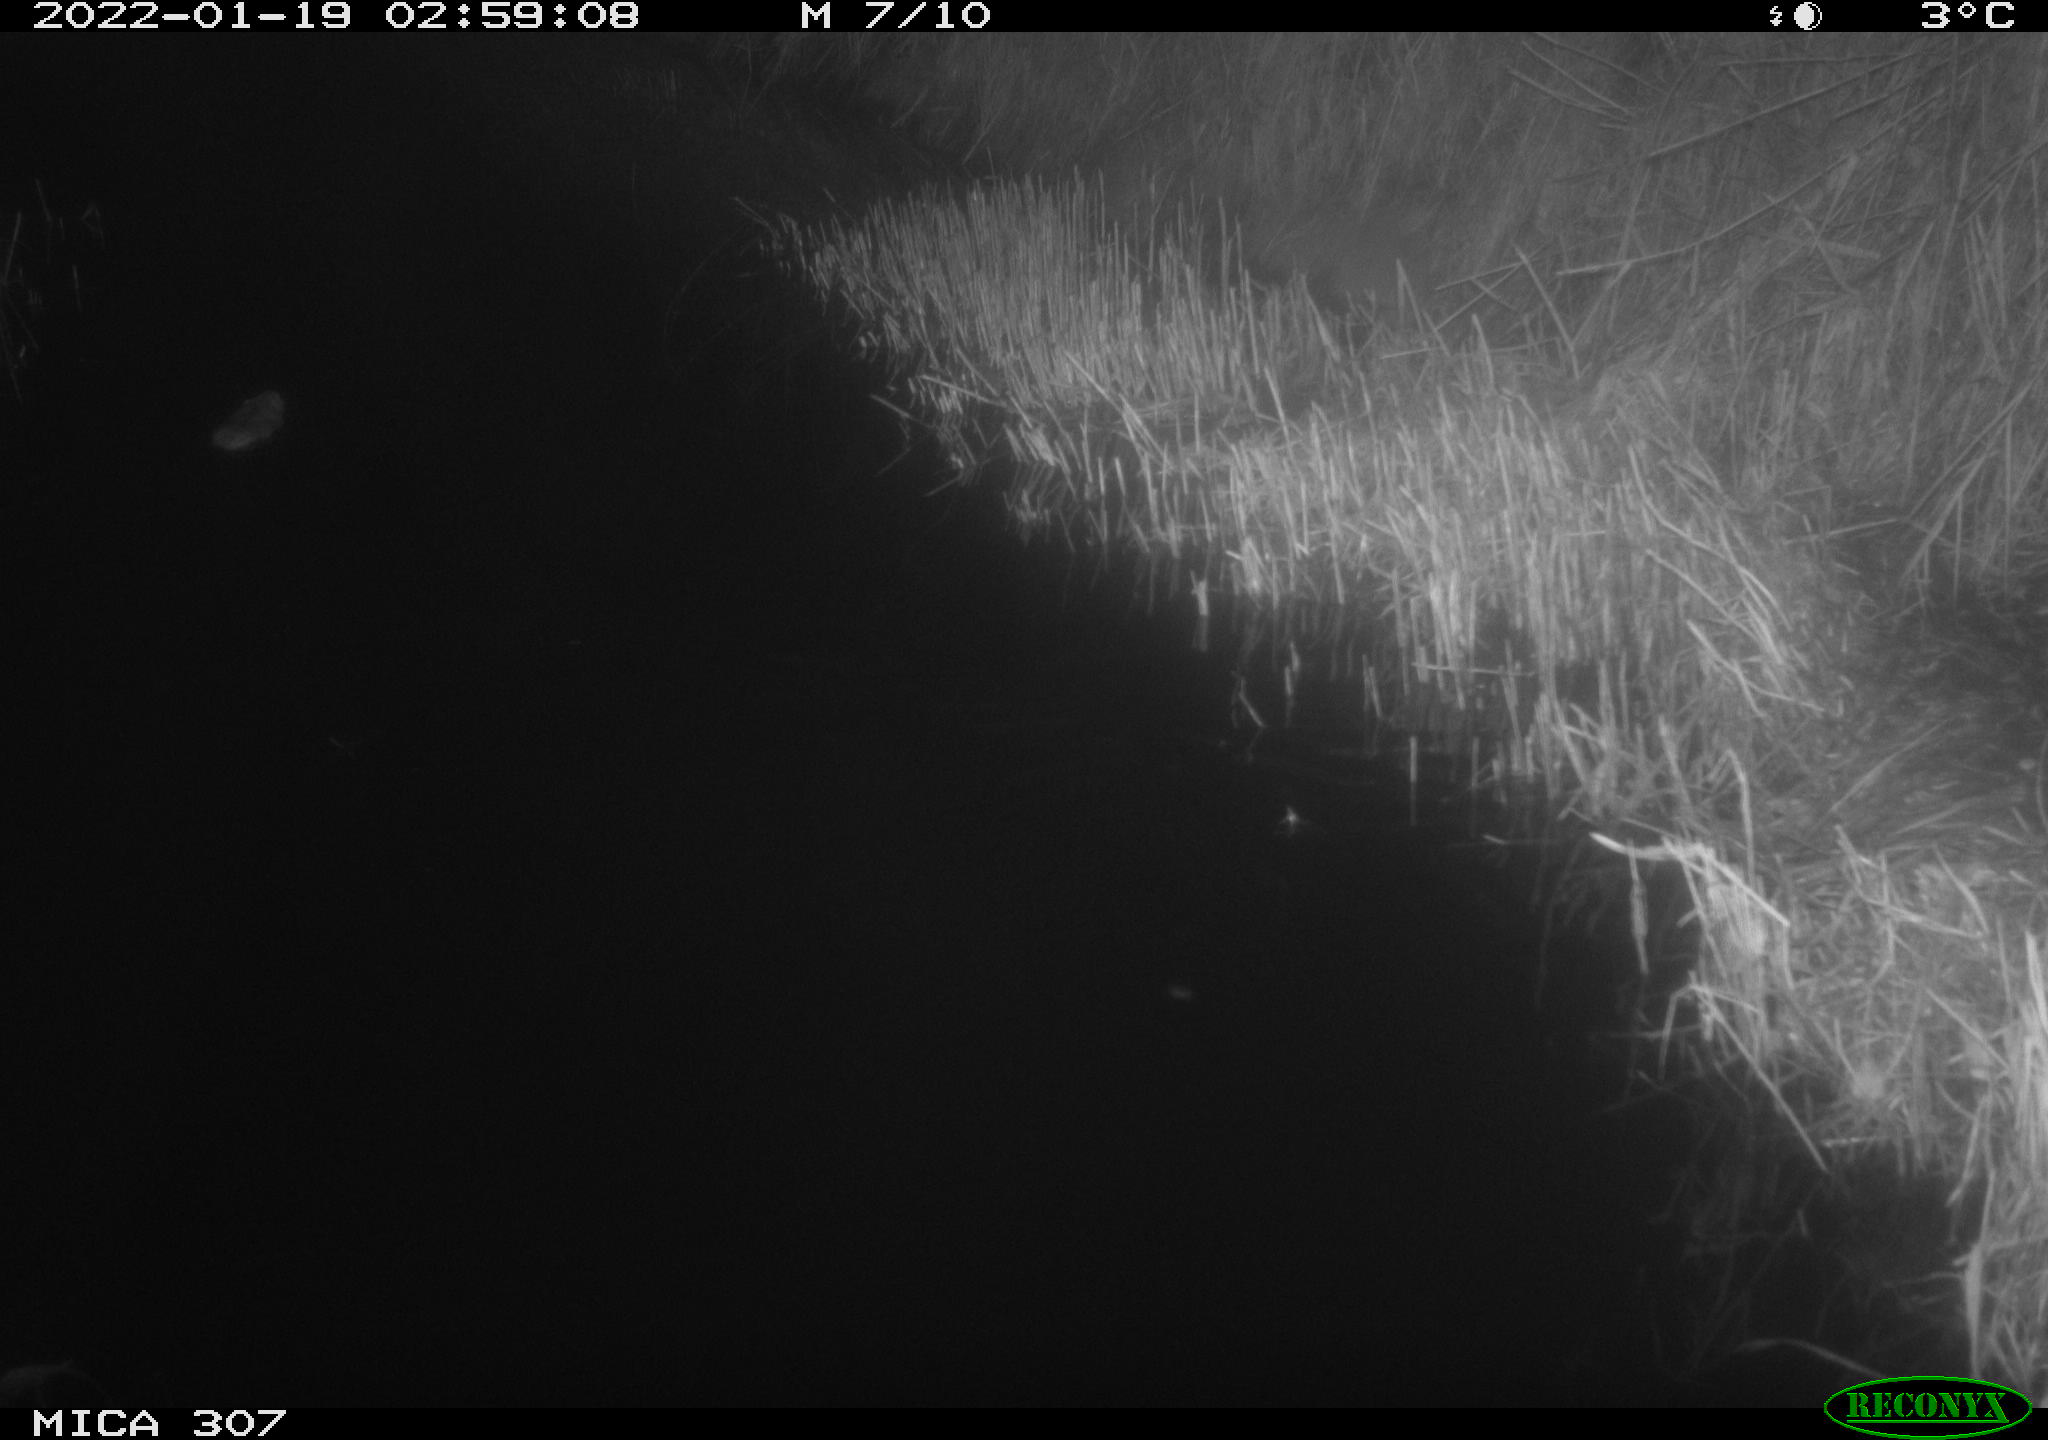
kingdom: Animalia
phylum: Chordata
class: Mammalia
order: Rodentia
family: Muridae
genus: Rattus
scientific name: Rattus norvegicus
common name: Brown rat
